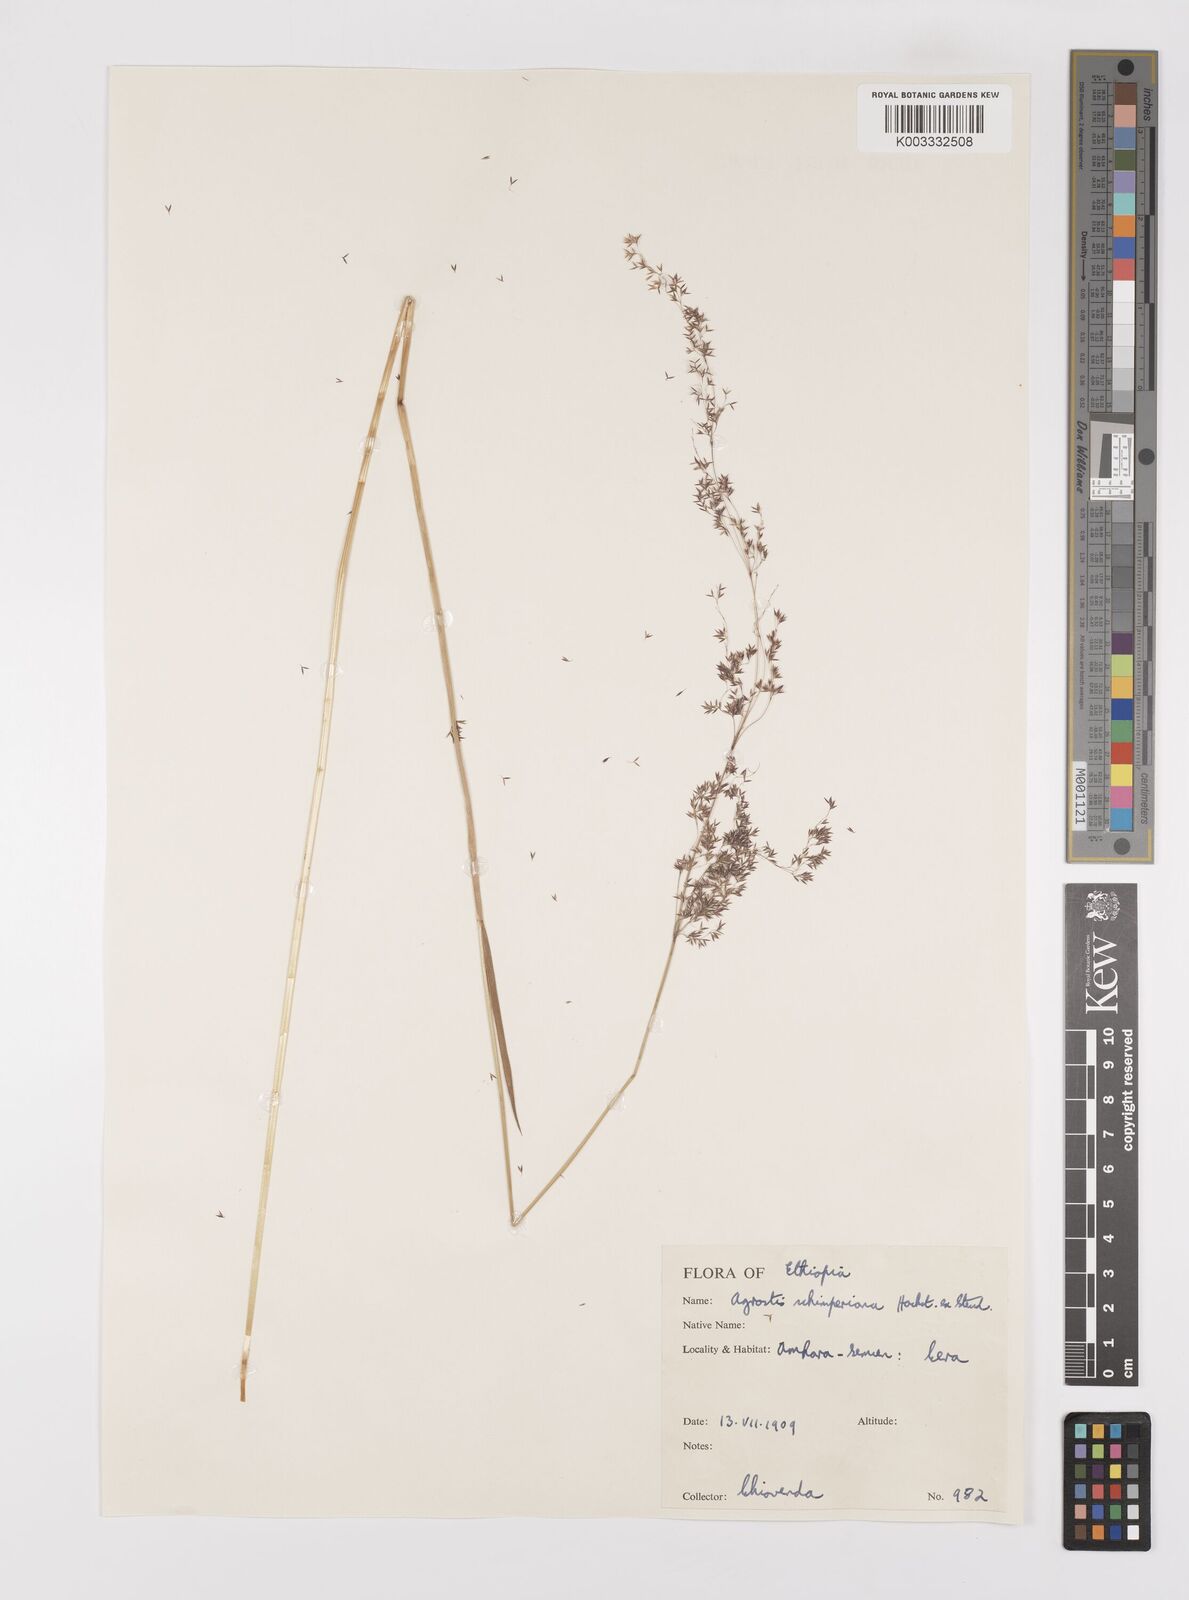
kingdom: Plantae
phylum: Tracheophyta
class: Liliopsida
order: Poales
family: Poaceae
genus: Polypogon
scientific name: Polypogon schimperianus
